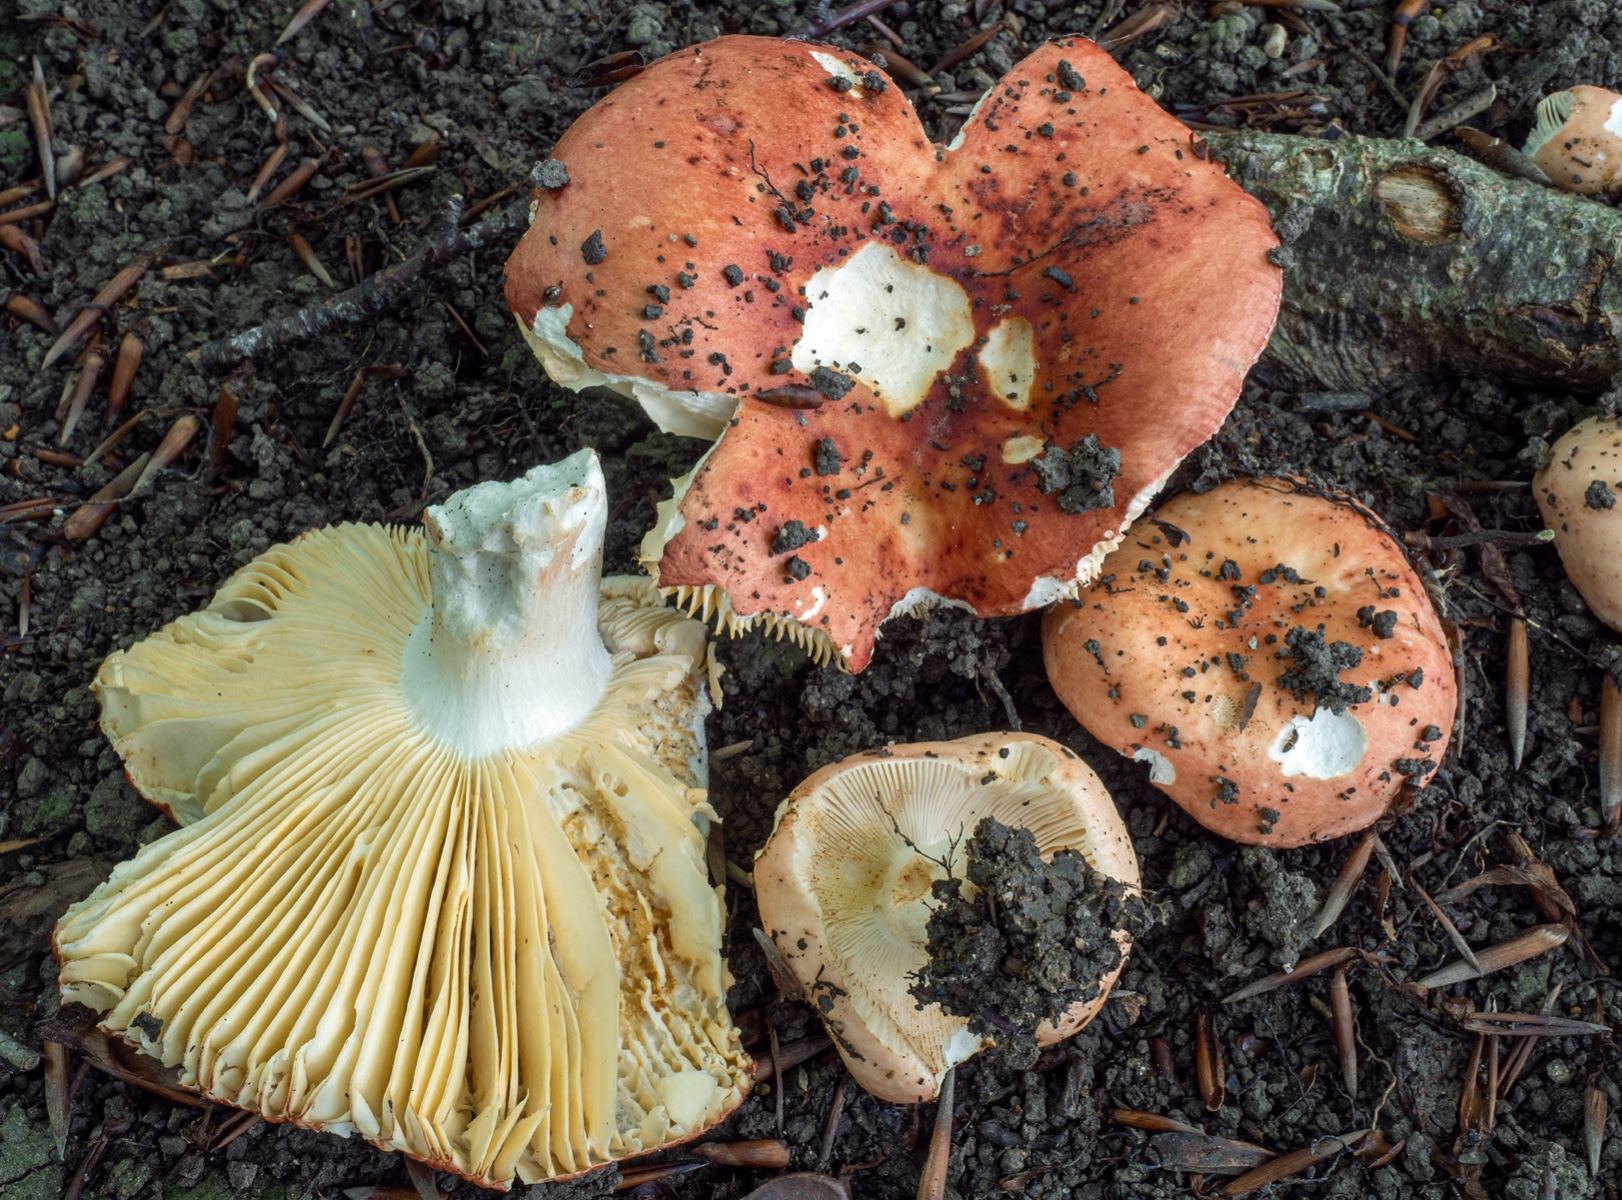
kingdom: Fungi
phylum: Basidiomycota
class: Agaricomycetes
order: Russulales
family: Russulaceae
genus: Russula
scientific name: Russula maculata
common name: plettet skørhat
